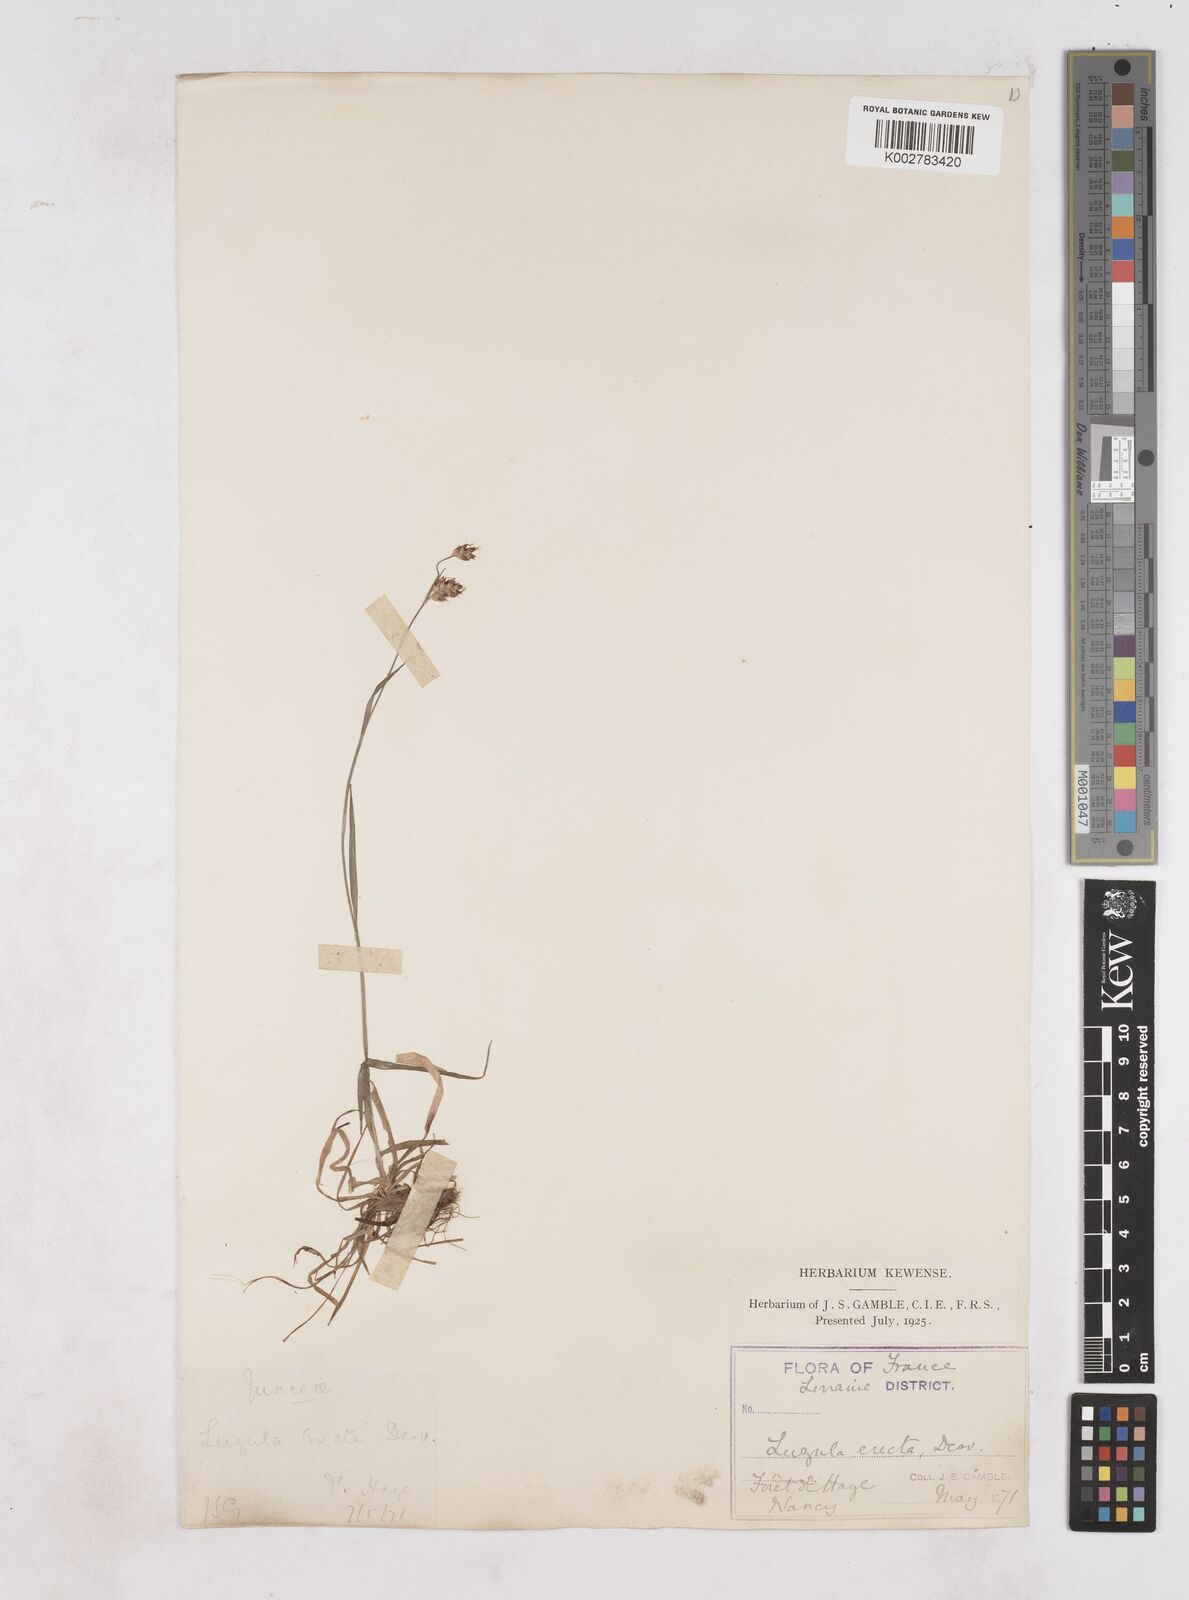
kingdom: Plantae
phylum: Tracheophyta
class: Liliopsida
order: Poales
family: Juncaceae
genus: Luzula
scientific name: Luzula multiflora
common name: Heath wood-rush
